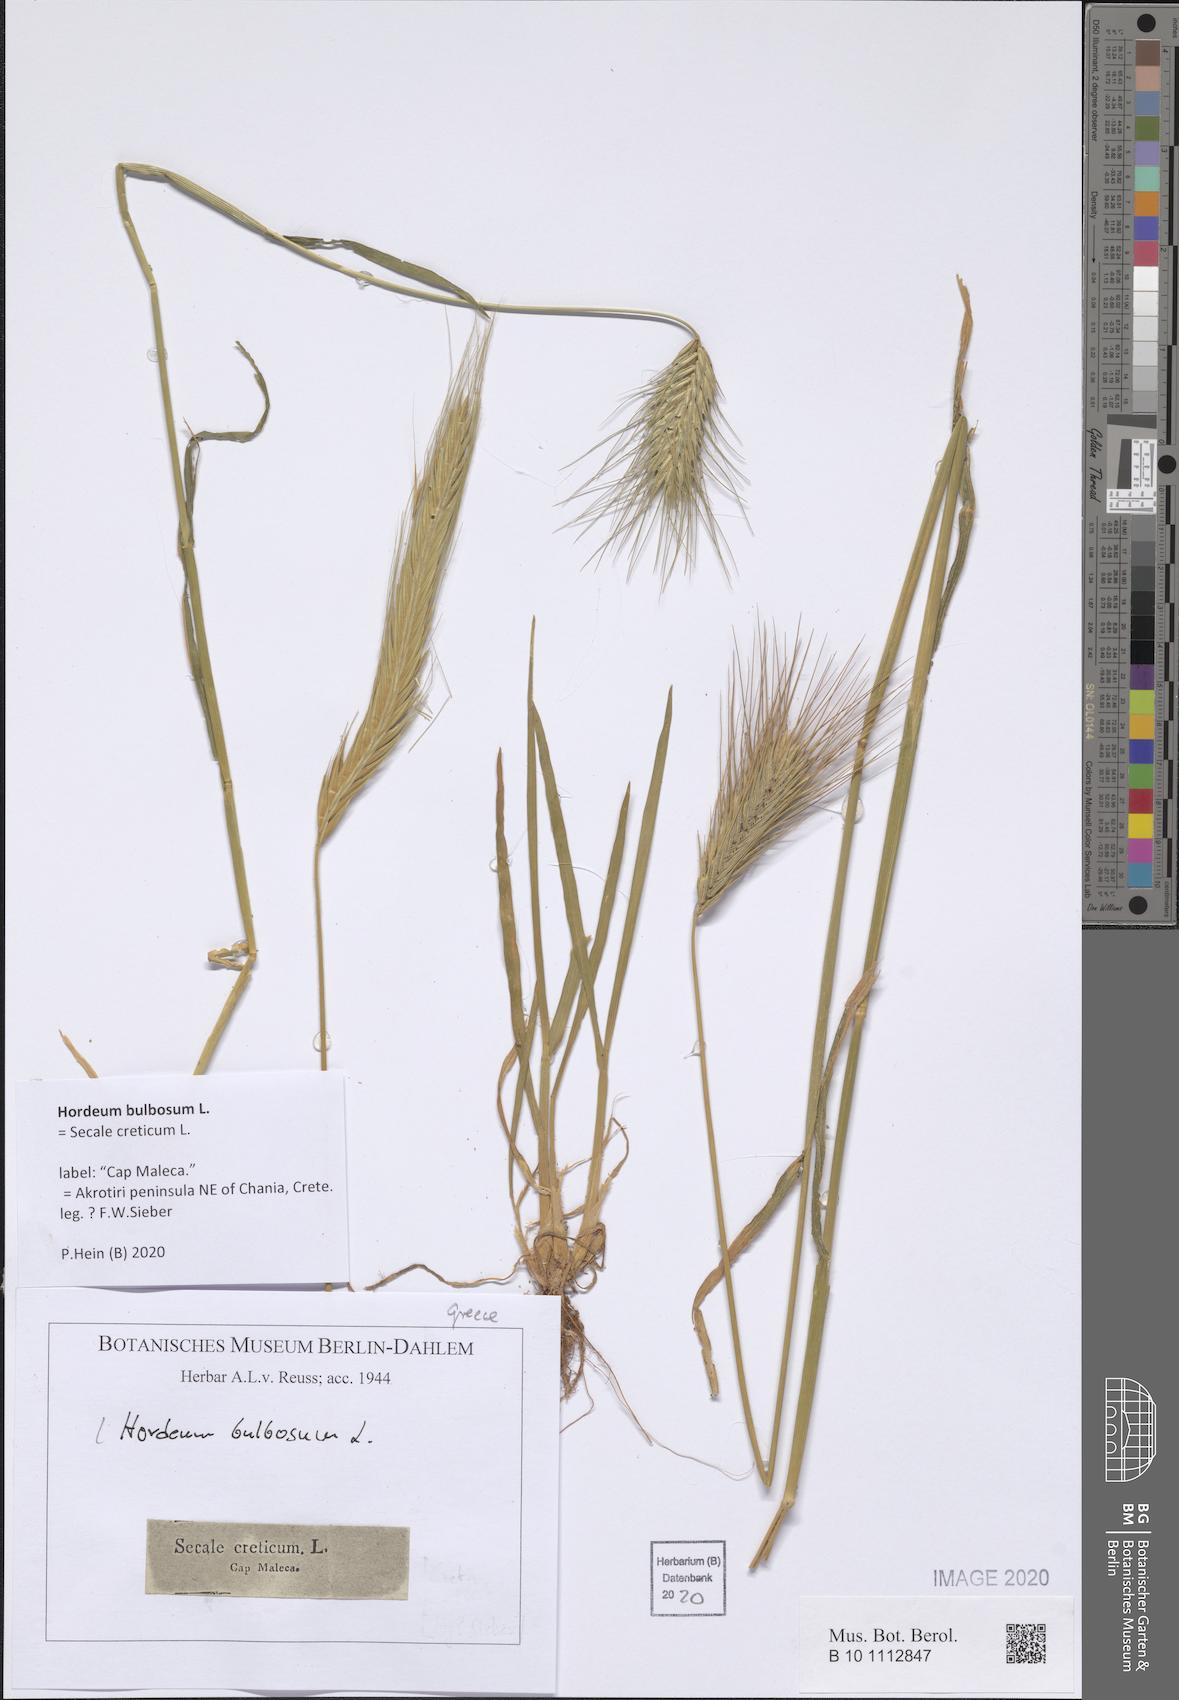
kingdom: Plantae
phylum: Tracheophyta
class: Liliopsida
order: Poales
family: Poaceae
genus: Hordeum
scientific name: Hordeum bulbosum
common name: Bulbous barley
